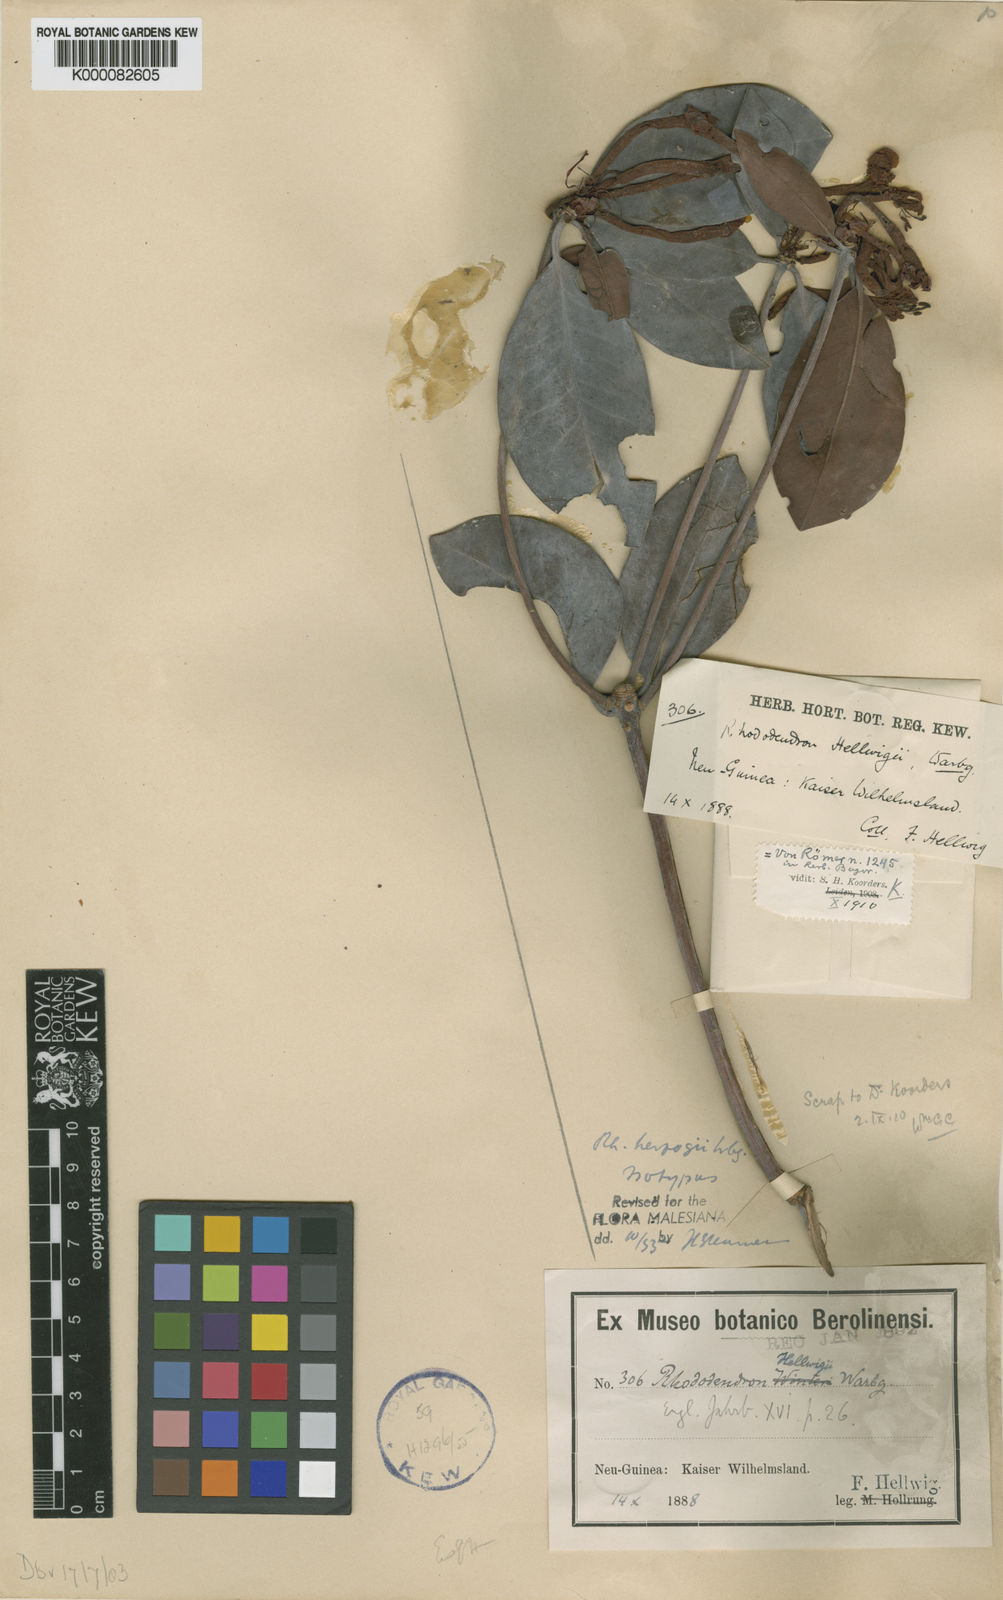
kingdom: Plantae
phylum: Tracheophyta
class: Magnoliopsida
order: Ericales
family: Ericaceae
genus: Rhododendron
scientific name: Rhododendron herzogii
